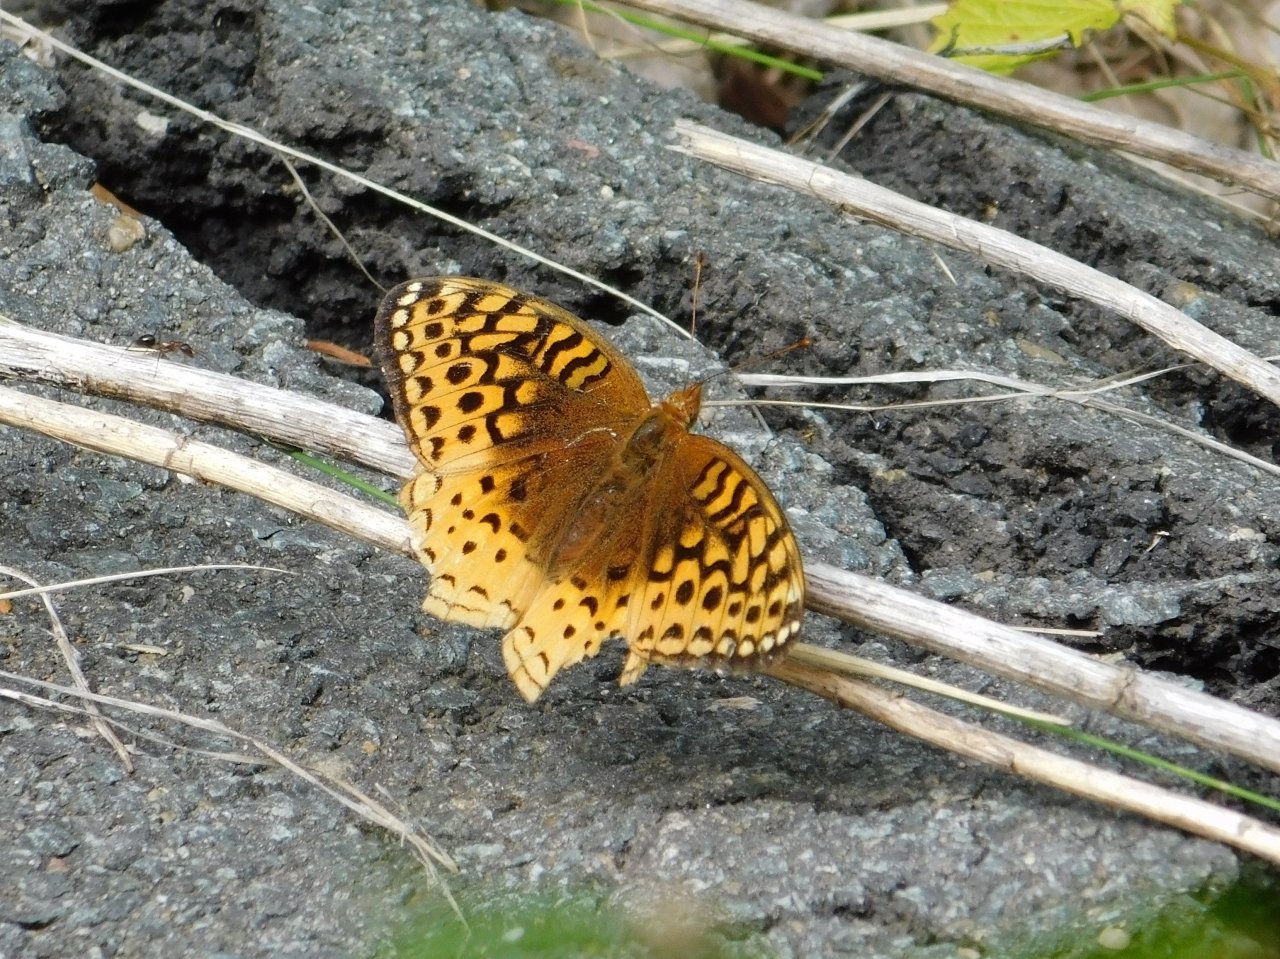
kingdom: Animalia
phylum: Arthropoda
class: Insecta
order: Lepidoptera
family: Nymphalidae
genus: Speyeria
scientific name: Speyeria cybele
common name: Great Spangled Fritillary
